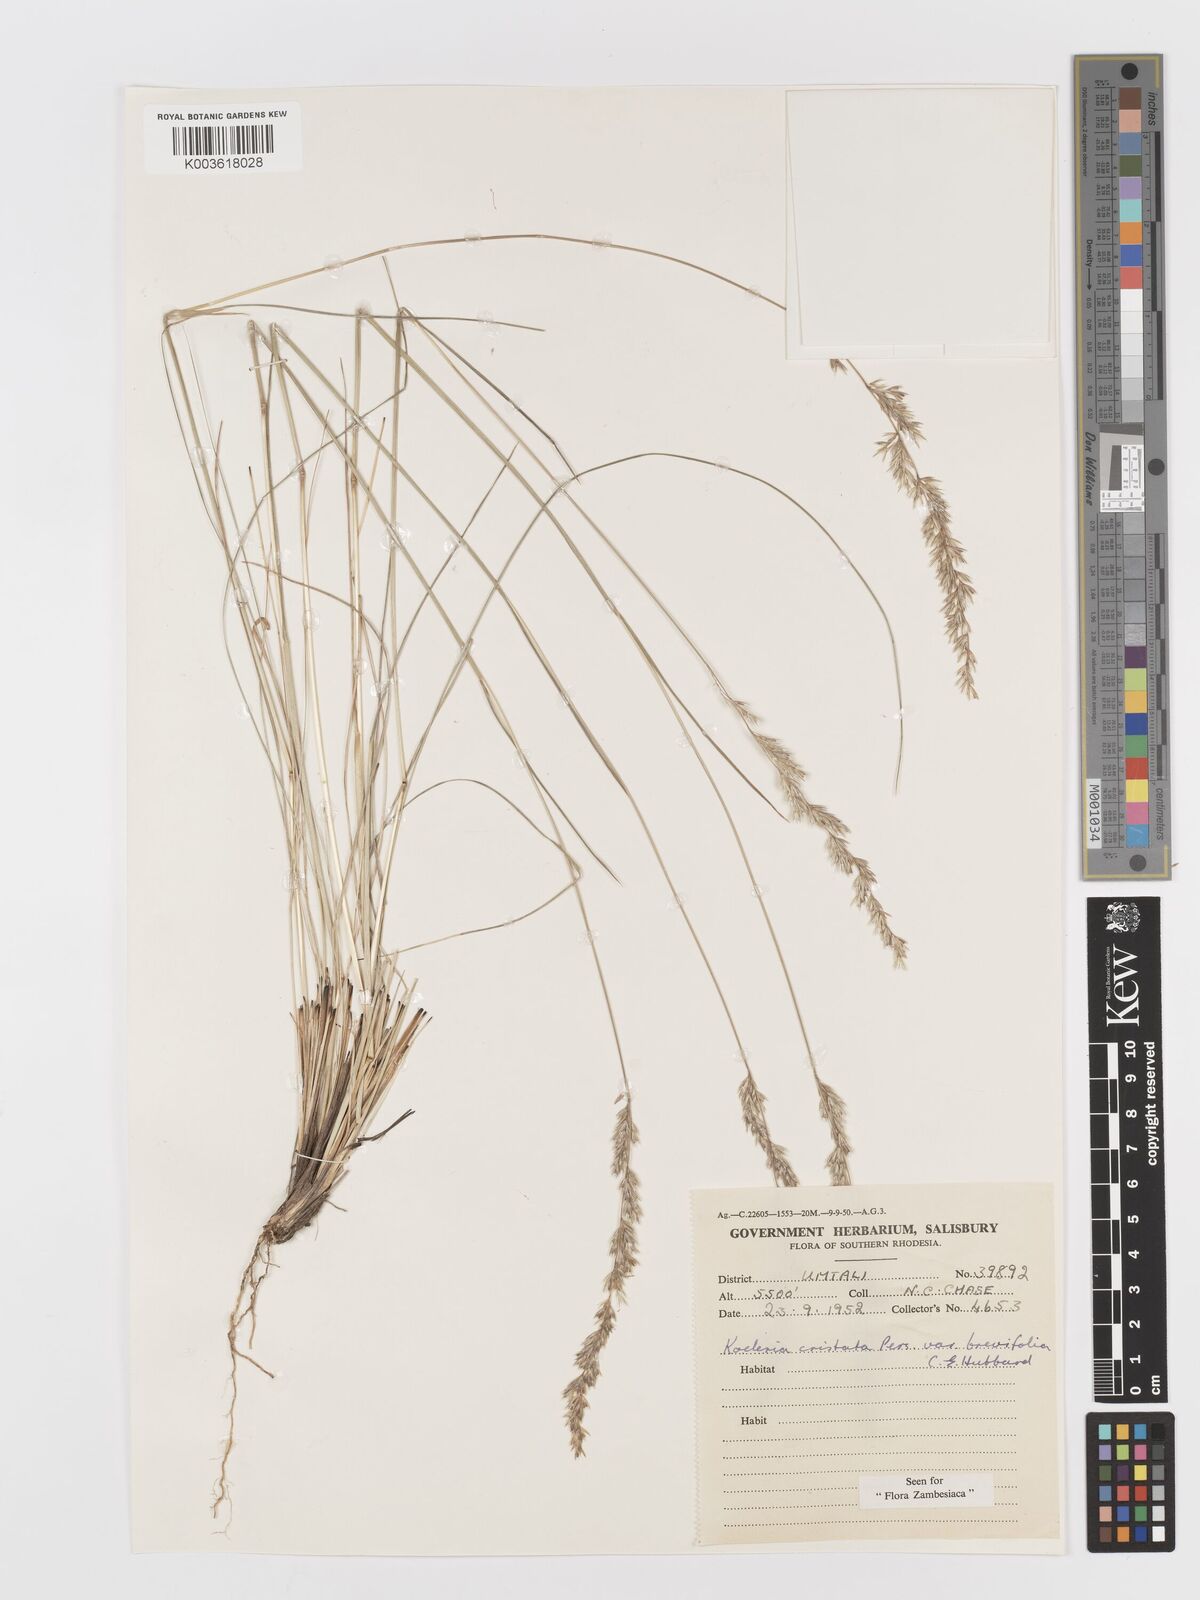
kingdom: Plantae
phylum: Tracheophyta
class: Liliopsida
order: Poales
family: Poaceae
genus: Koeleria
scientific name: Koeleria capensis
